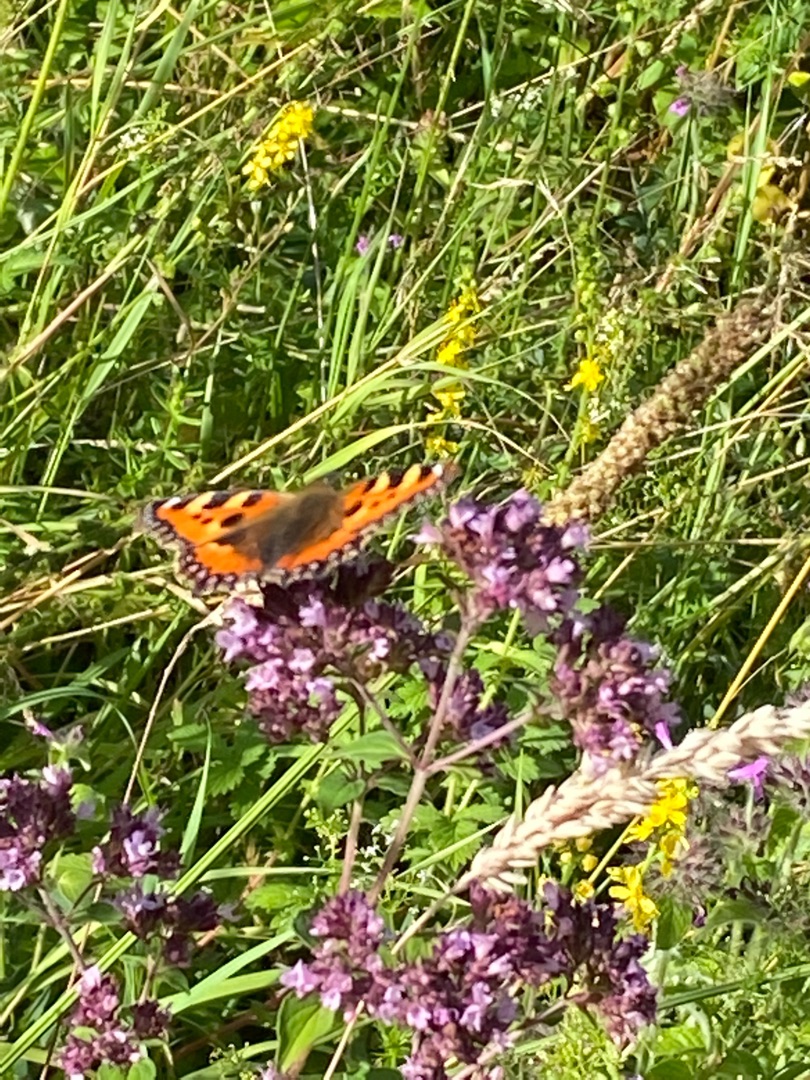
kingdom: Animalia
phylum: Arthropoda
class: Insecta
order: Lepidoptera
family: Nymphalidae
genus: Aglais
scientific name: Aglais urticae
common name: Nældens takvinge
